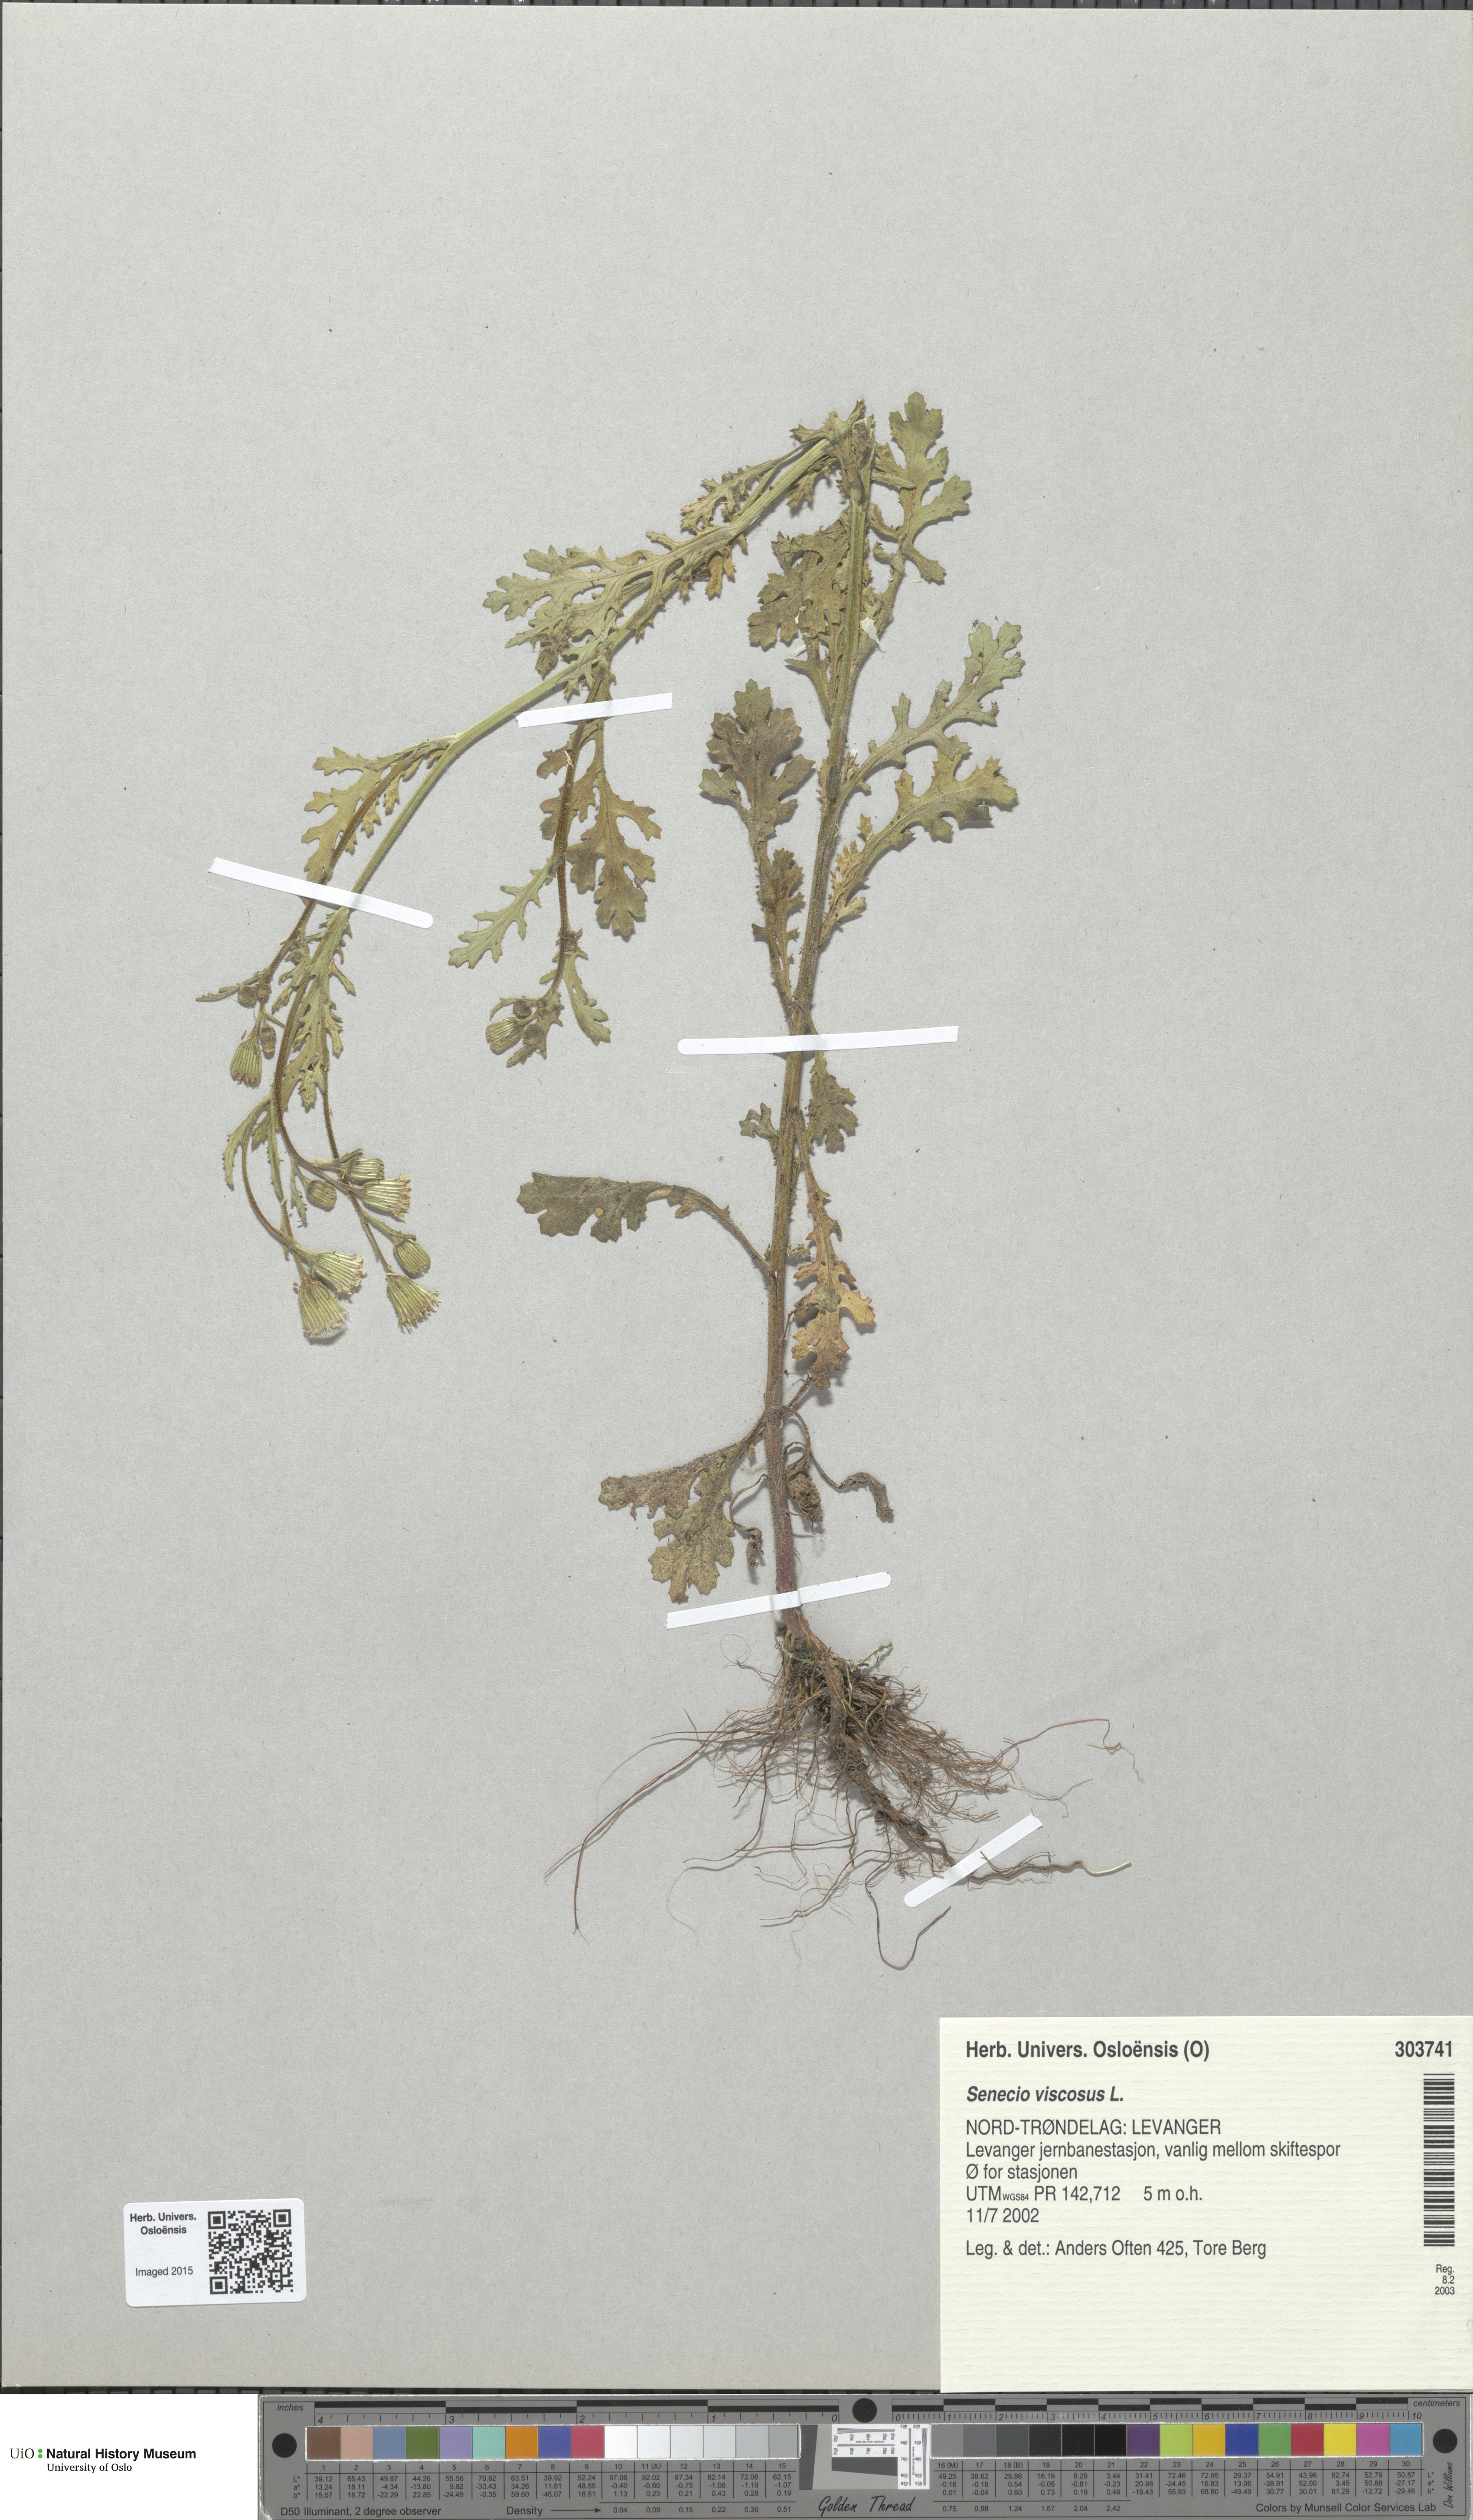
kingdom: Plantae
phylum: Tracheophyta
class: Magnoliopsida
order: Asterales
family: Asteraceae
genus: Senecio
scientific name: Senecio viscosus
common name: Sticky groundsel
